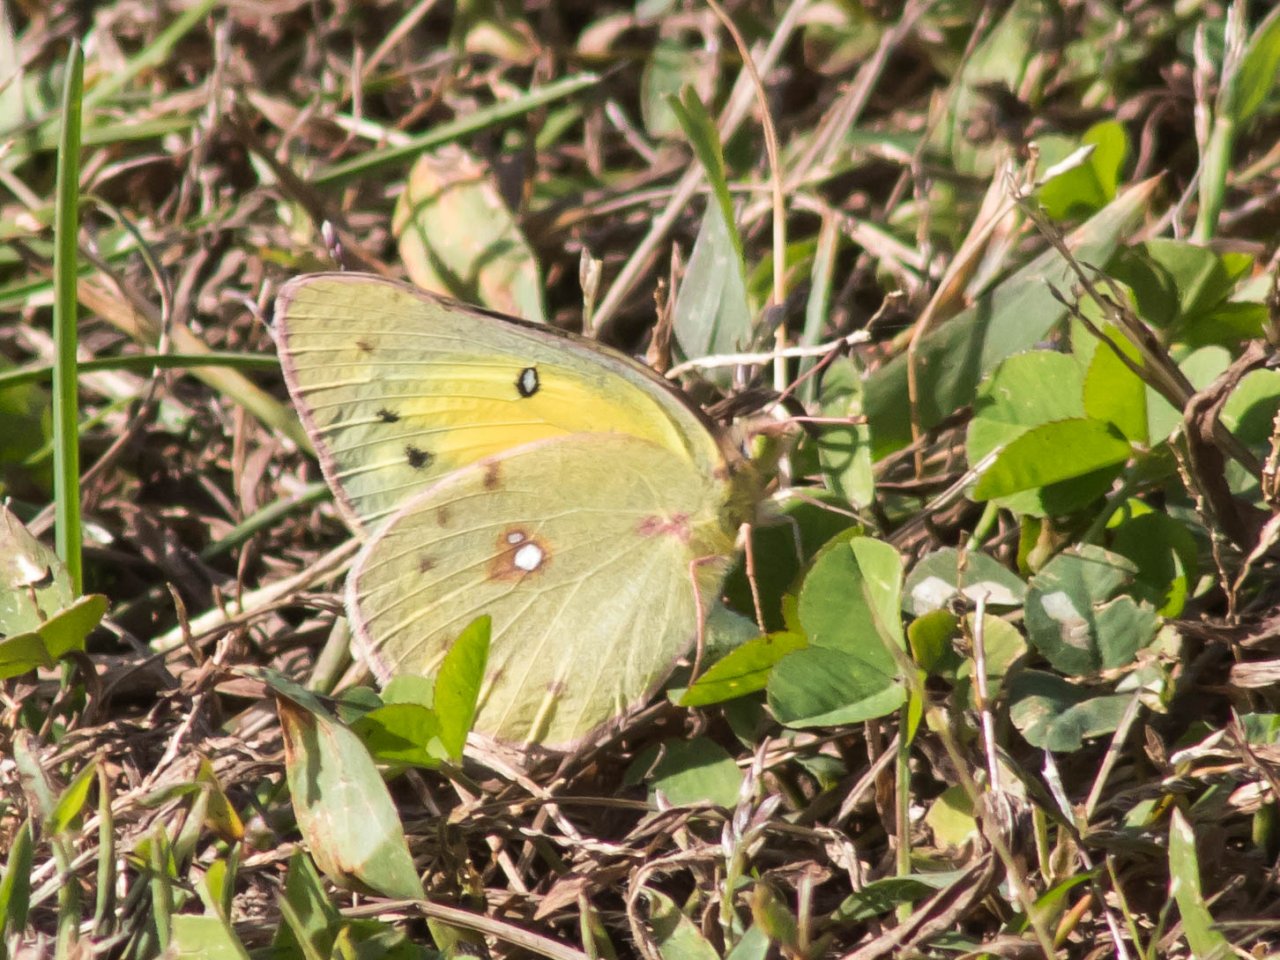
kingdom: Animalia
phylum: Arthropoda
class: Insecta
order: Lepidoptera
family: Pieridae
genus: Colias
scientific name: Colias eurytheme
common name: Orange Sulphur
